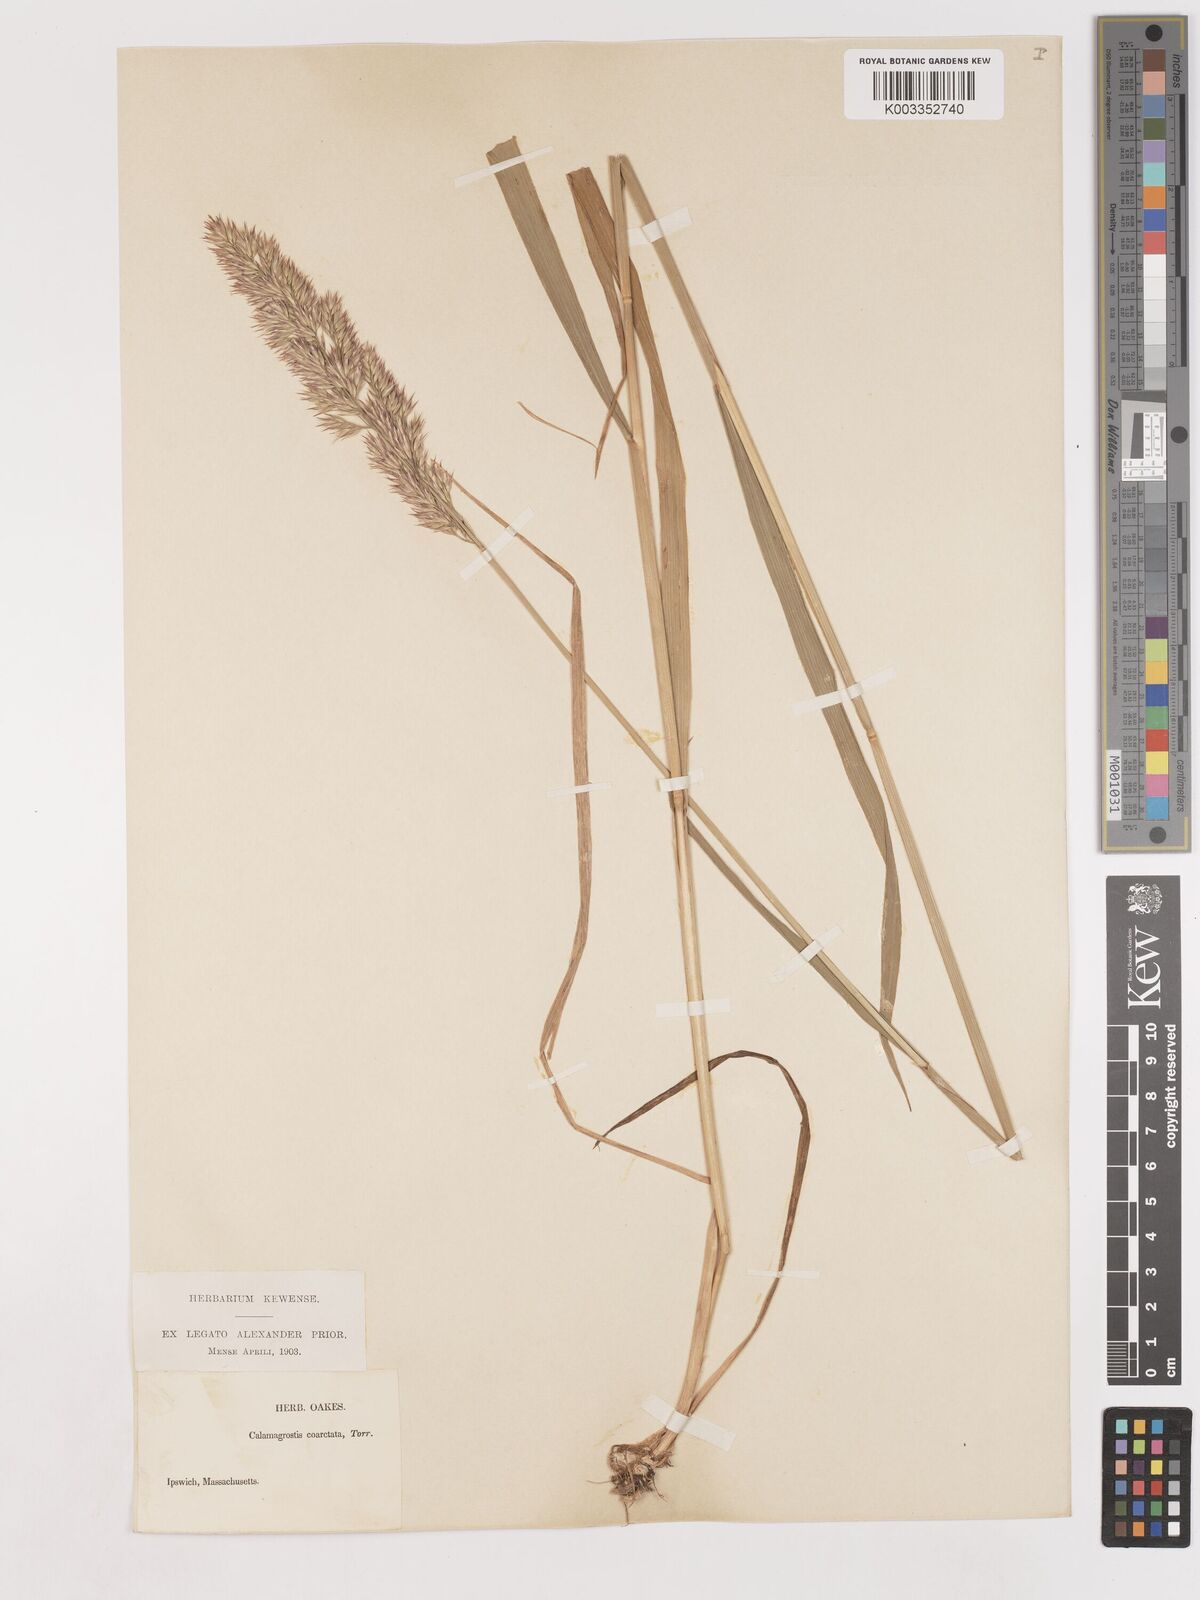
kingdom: Plantae
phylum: Tracheophyta
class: Liliopsida
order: Poales
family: Poaceae
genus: Calamagrostis
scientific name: Calamagrostis canadensis
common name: Canada bluejoint
